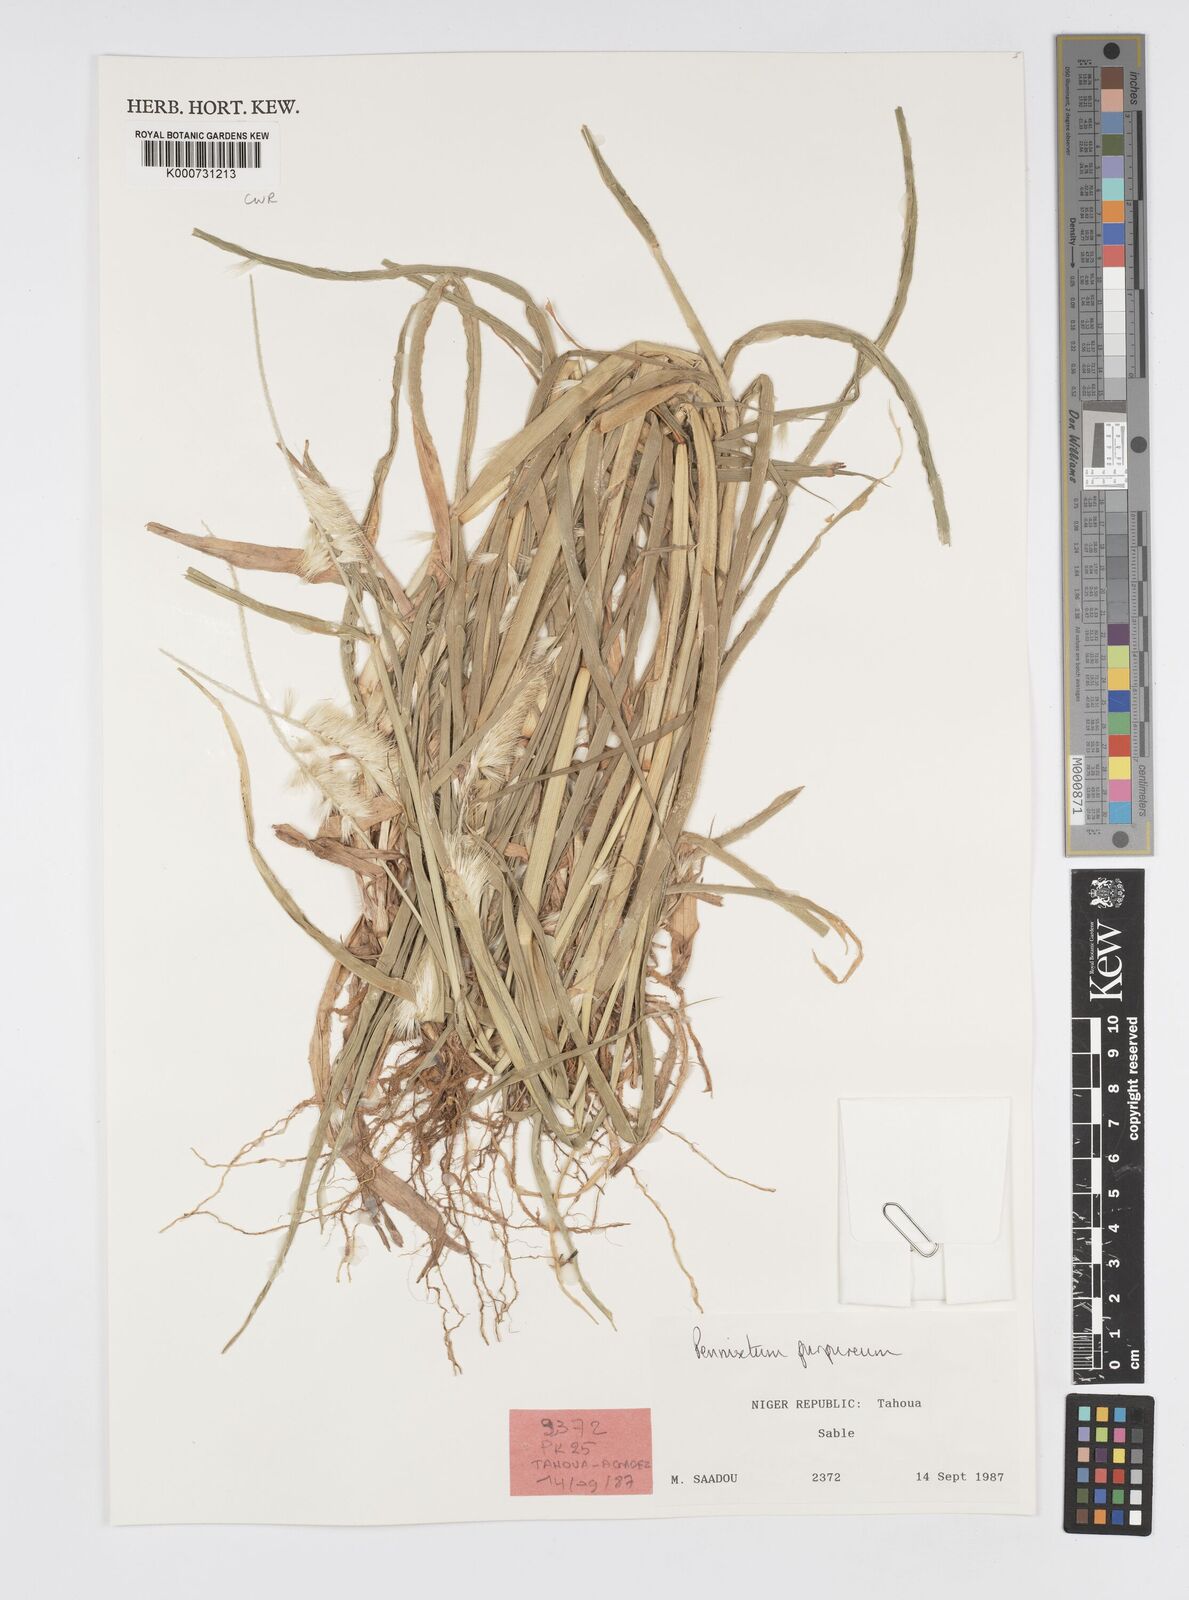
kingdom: Plantae
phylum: Tracheophyta
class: Liliopsida
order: Poales
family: Poaceae
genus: Cenchrus
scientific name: Cenchrus purpureus
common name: Elephant grass
